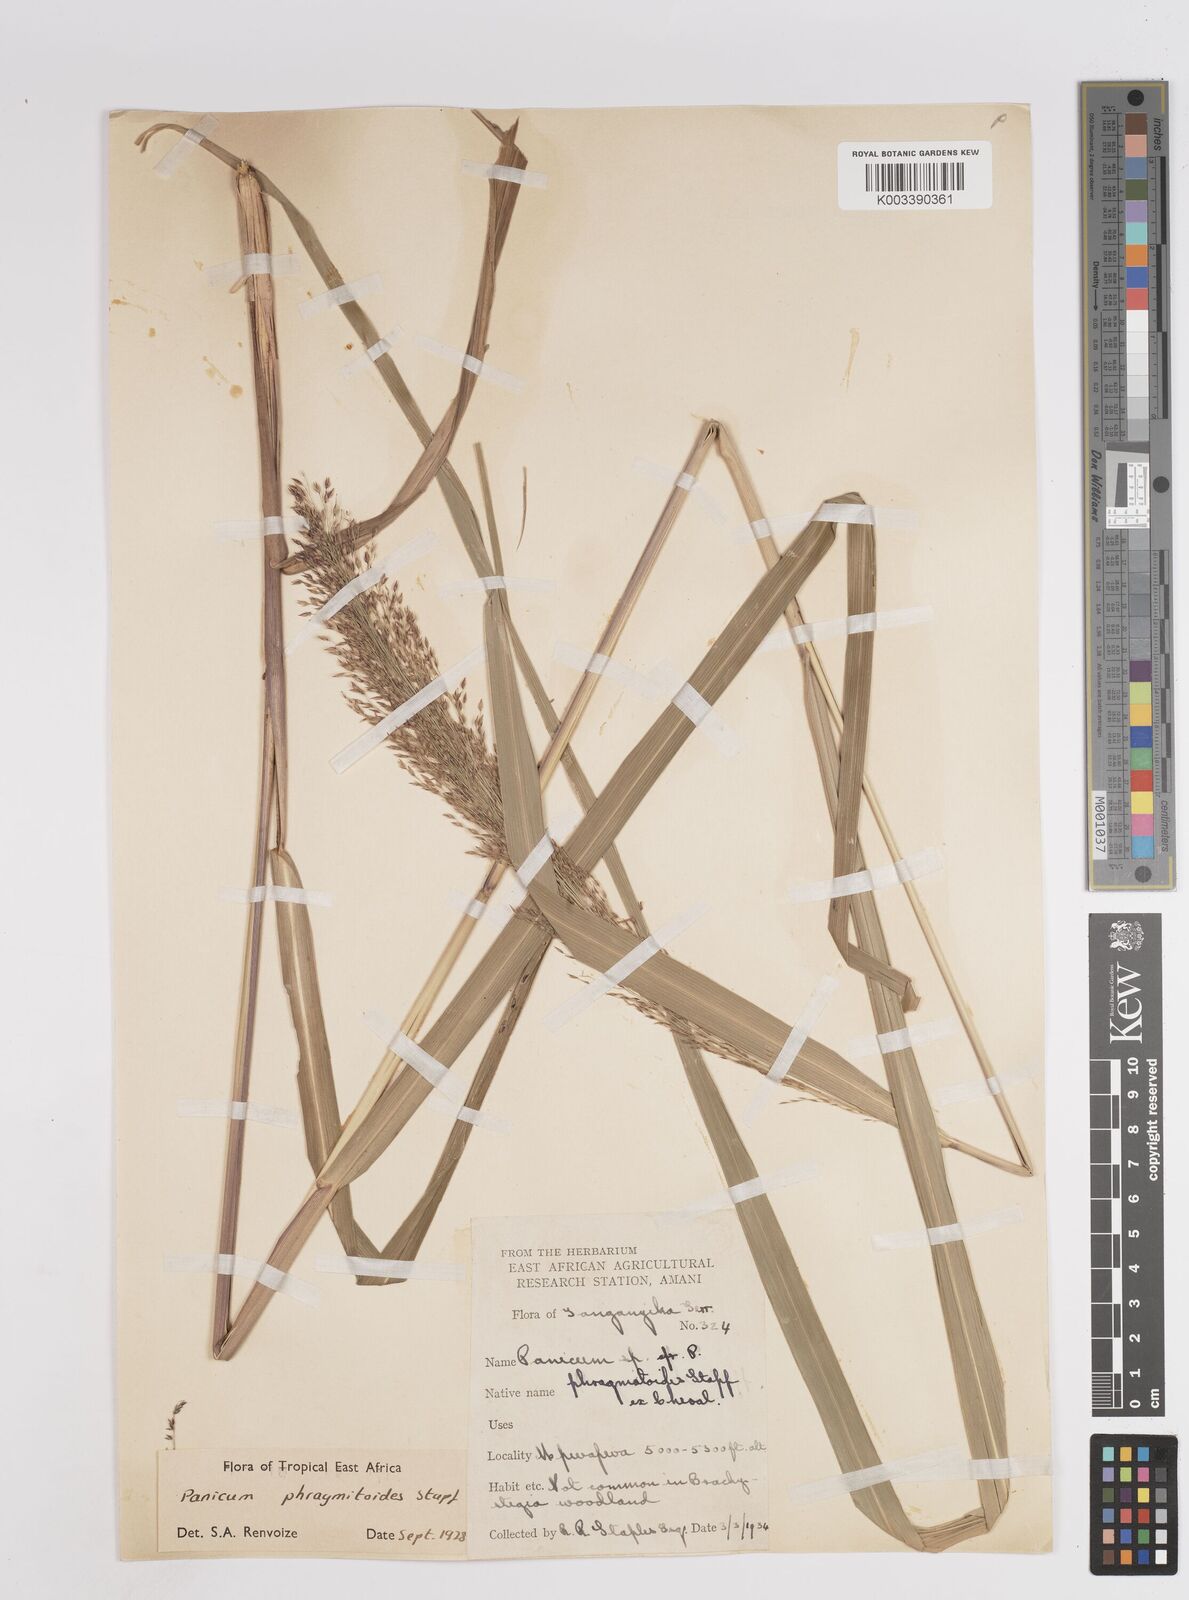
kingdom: Plantae
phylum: Tracheophyta
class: Liliopsida
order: Poales
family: Poaceae
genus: Panicum
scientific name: Panicum phragmitoides
